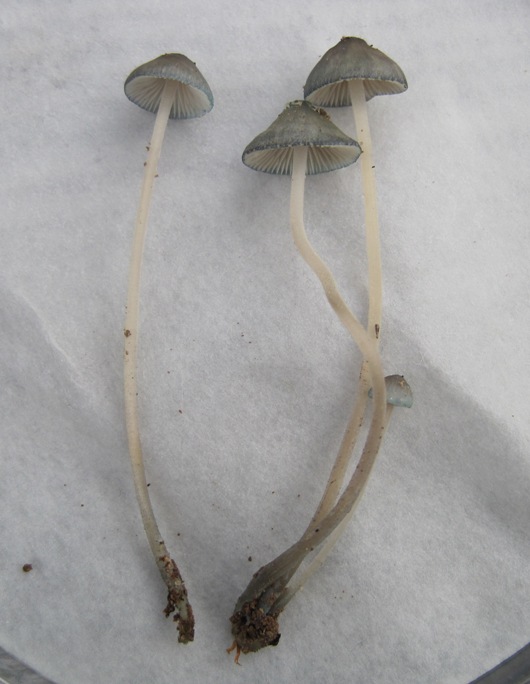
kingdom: Fungi
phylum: Basidiomycota
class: Agaricomycetes
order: Agaricales
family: Mycenaceae
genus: Mycena
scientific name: Mycena amicta
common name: iris-huesvamp
